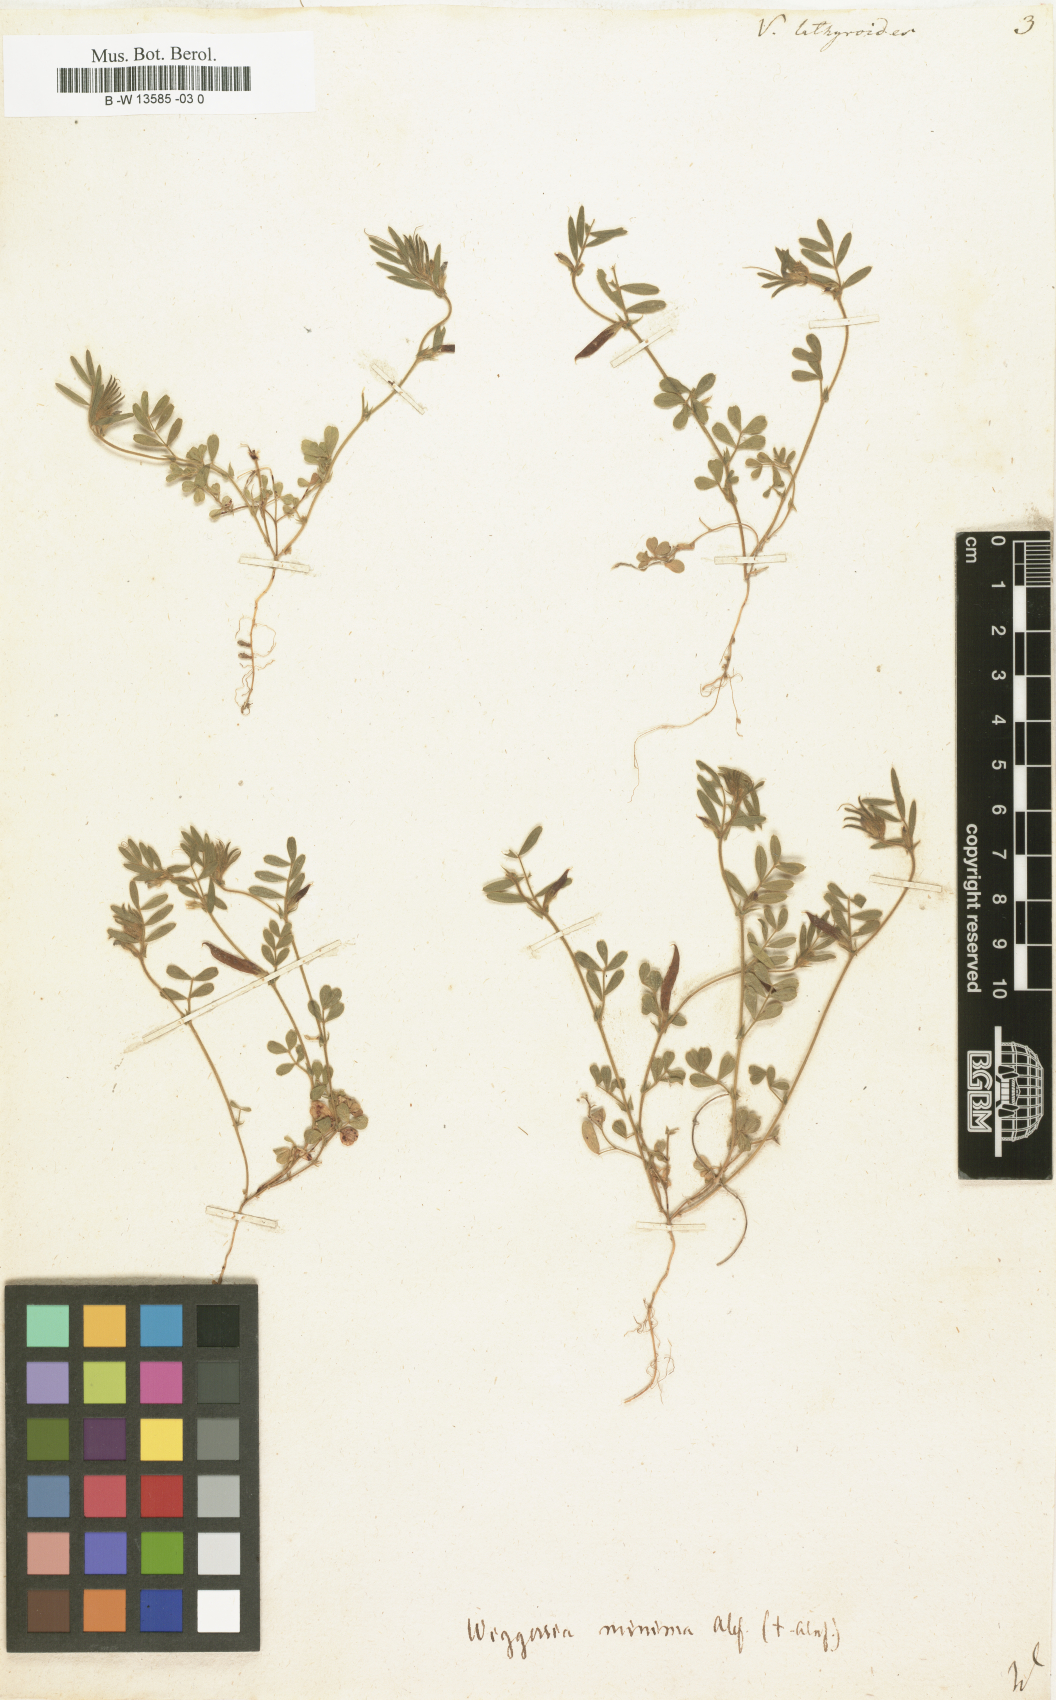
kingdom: Plantae
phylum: Tracheophyta
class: Magnoliopsida
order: Fabales
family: Fabaceae
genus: Vicia
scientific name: Vicia lathyroides
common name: Spring vetch
